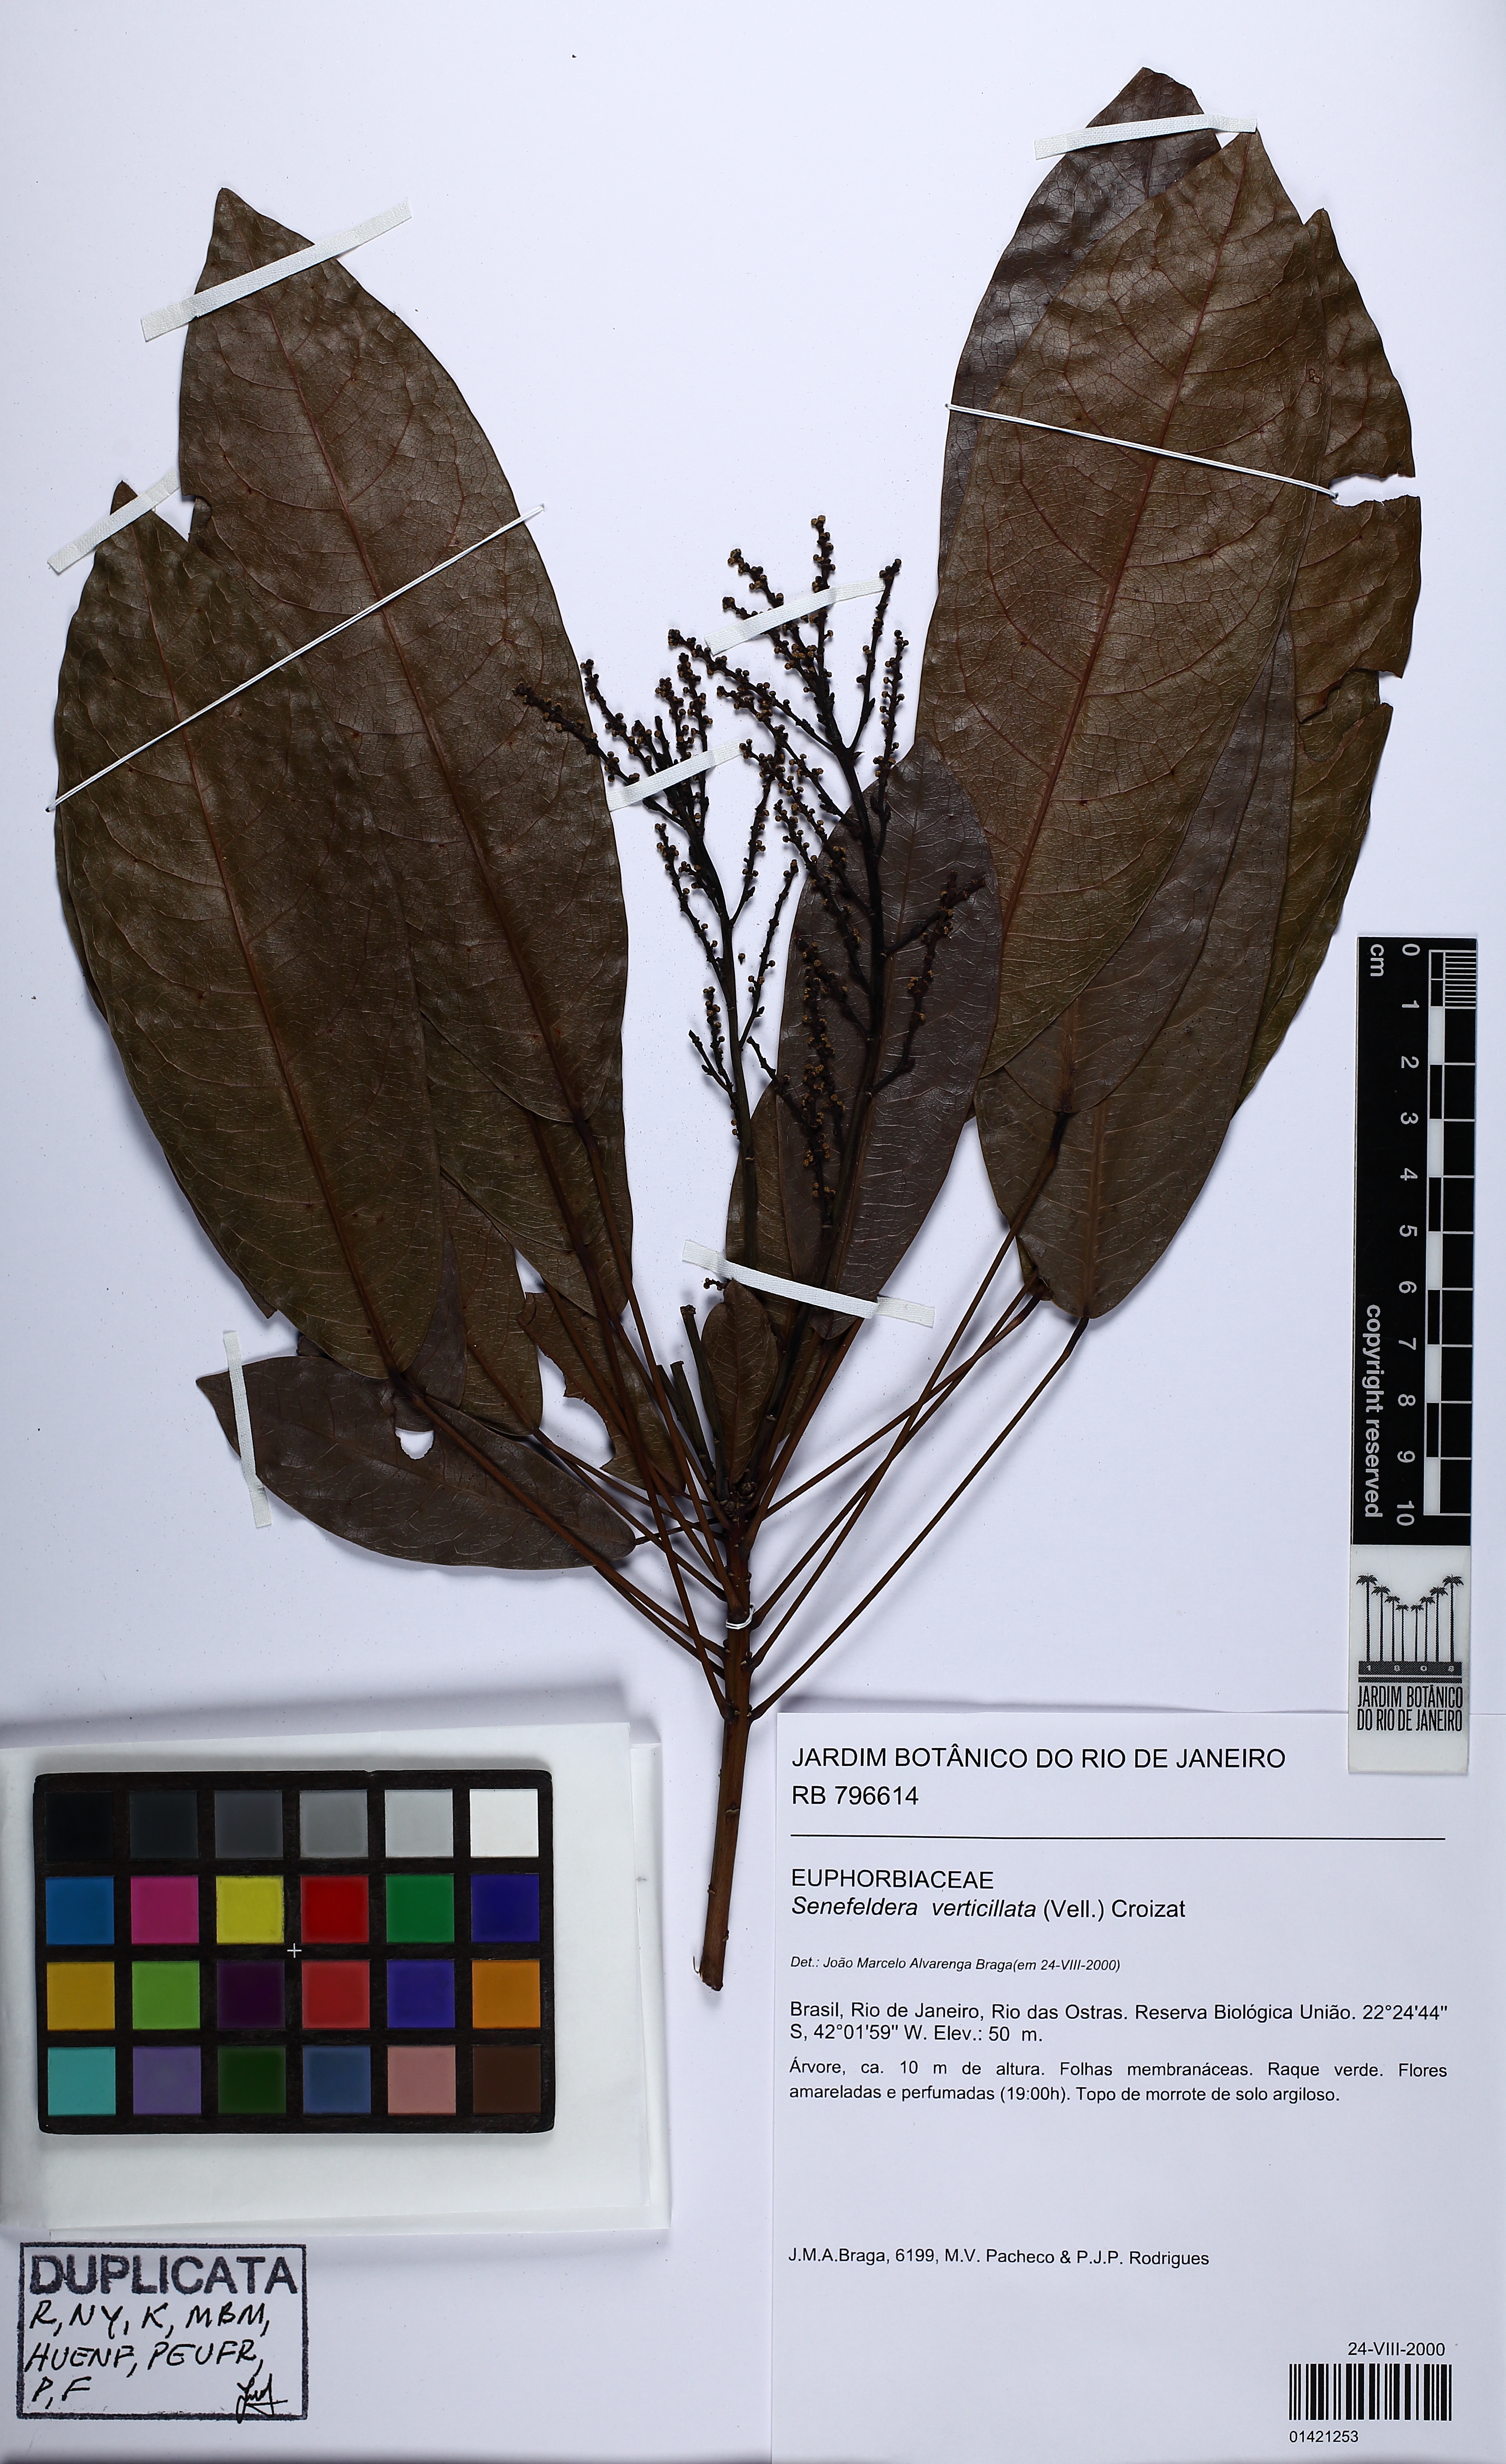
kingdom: Plantae
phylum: Tracheophyta
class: Magnoliopsida
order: Malpighiales
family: Euphorbiaceae
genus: Senefeldera
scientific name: Senefeldera verticillata
